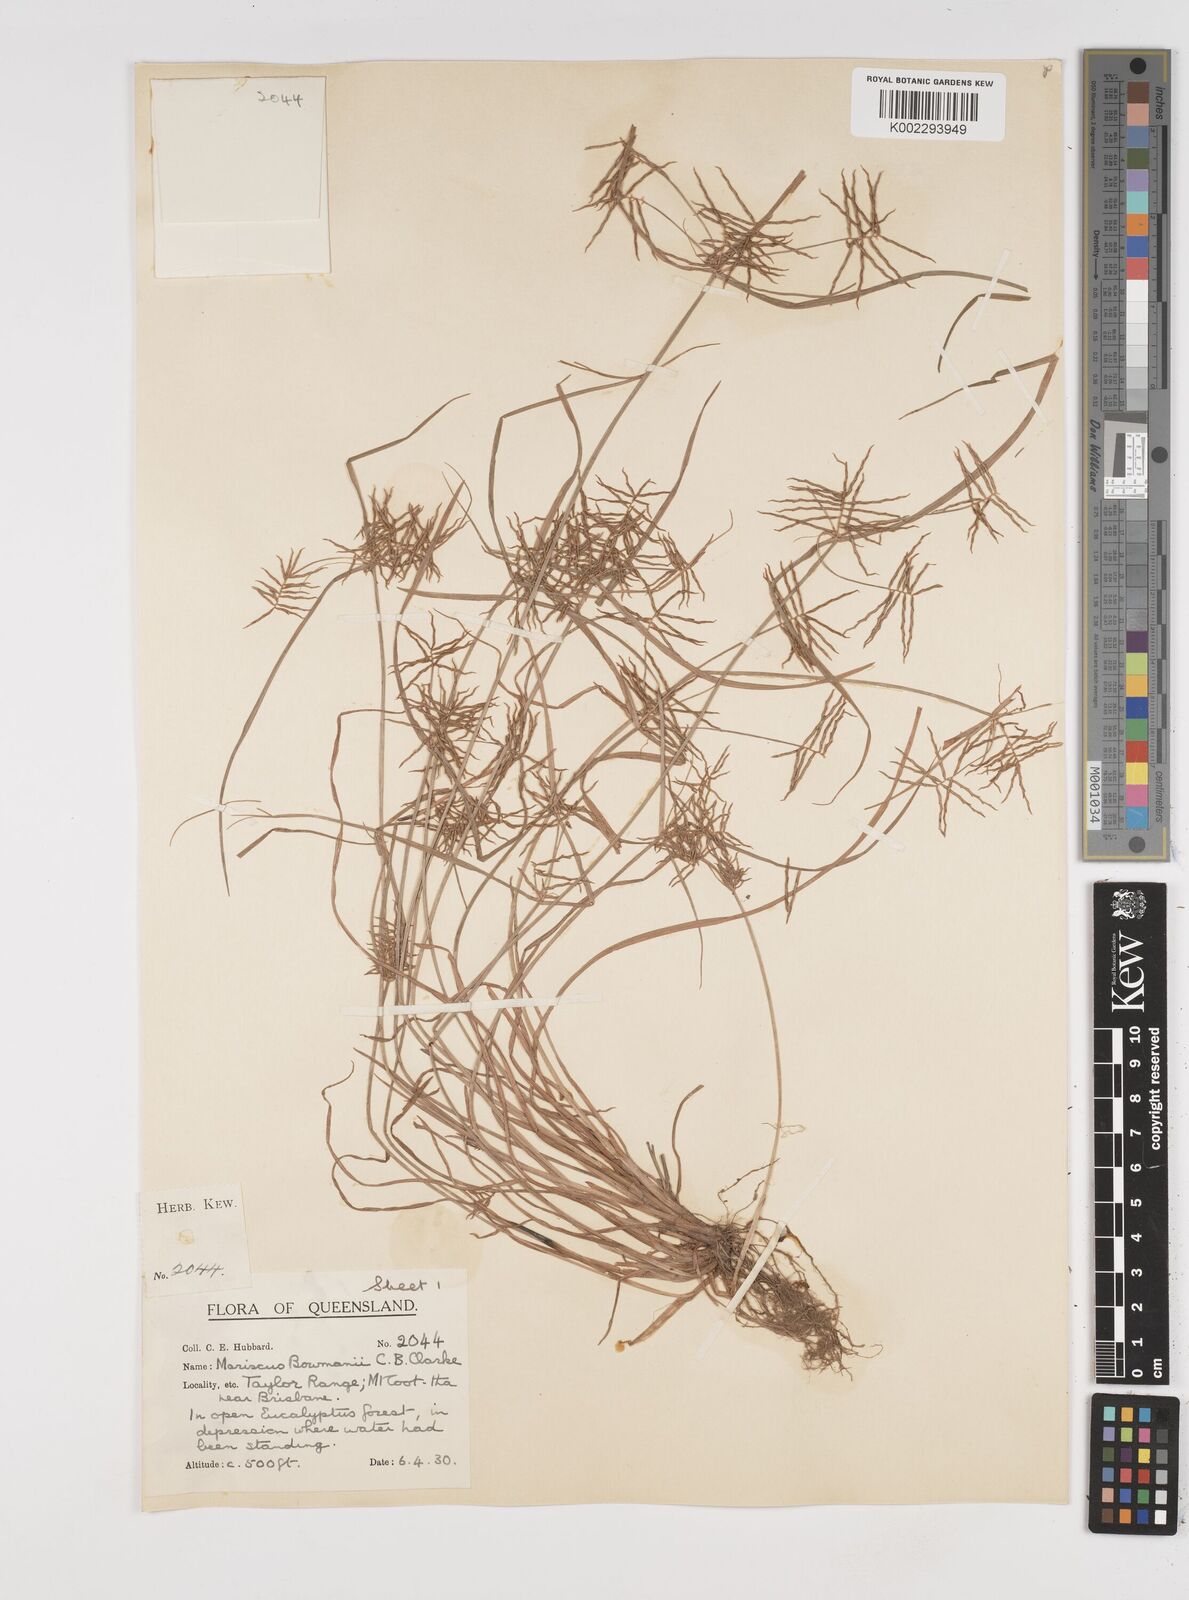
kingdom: Plantae
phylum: Tracheophyta
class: Liliopsida
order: Poales
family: Cyperaceae
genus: Cyperus
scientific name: Cyperus bowmanni
